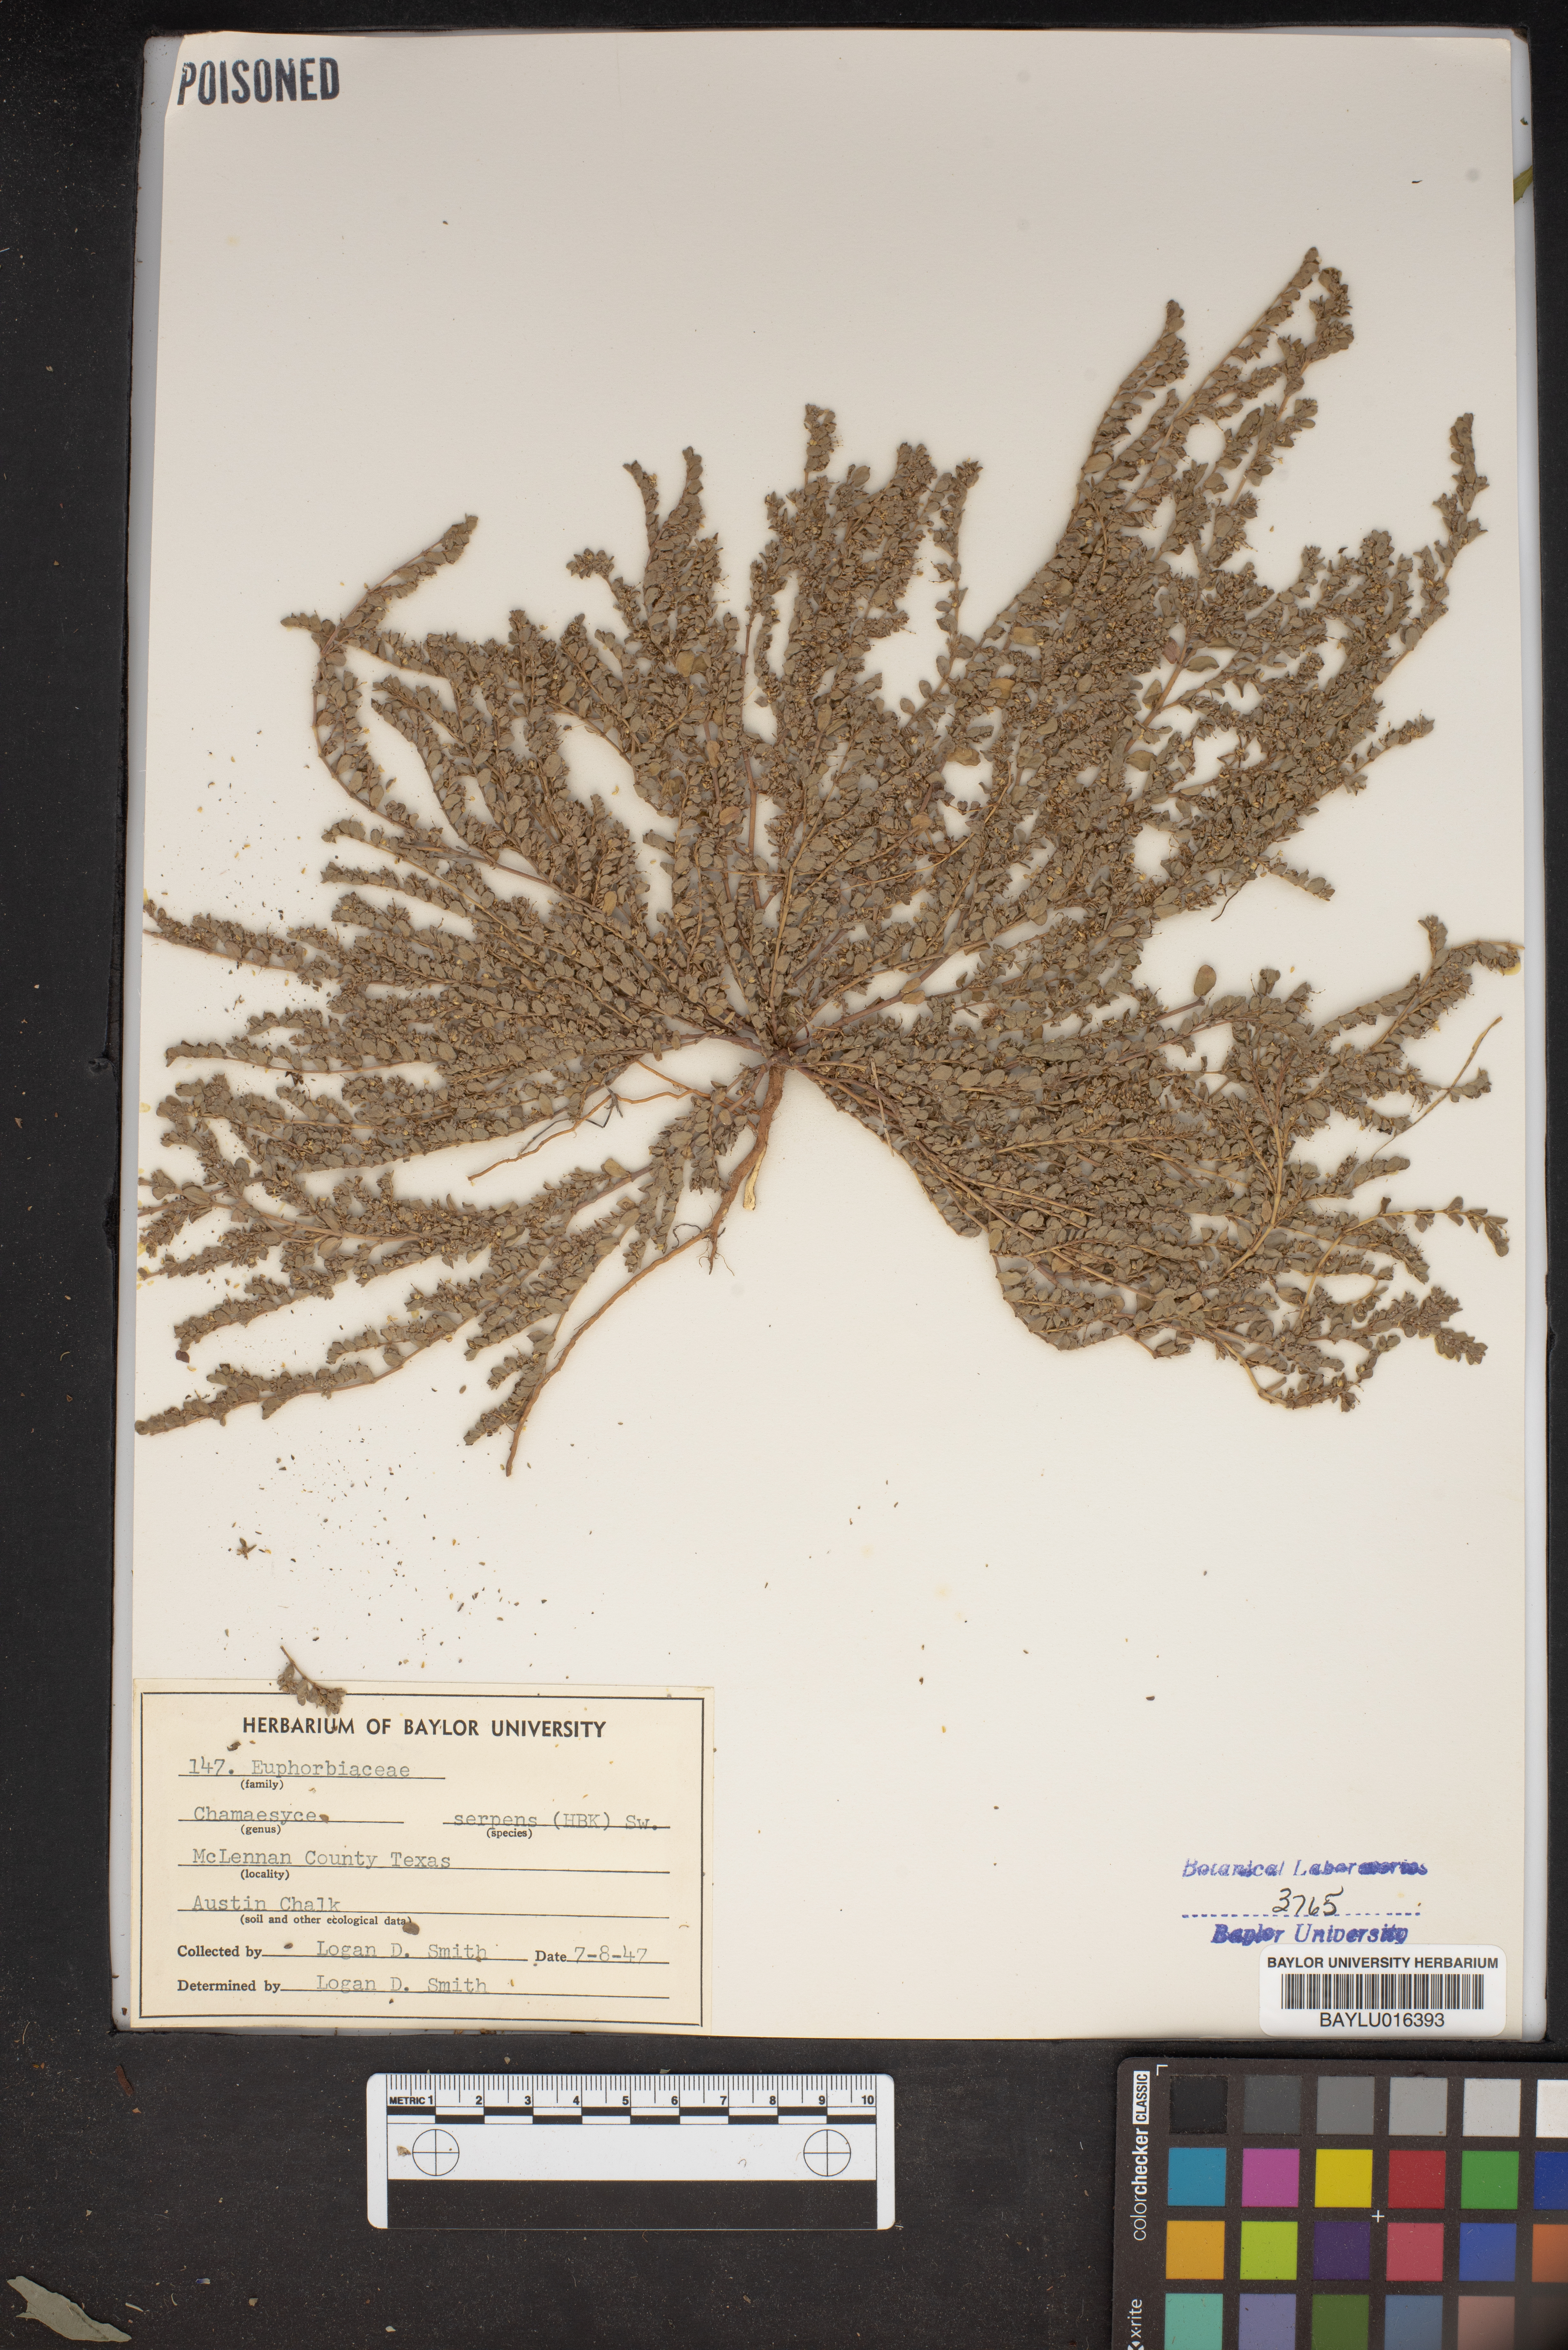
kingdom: Plantae
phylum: Tracheophyta
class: Magnoliopsida
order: Malpighiales
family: Euphorbiaceae
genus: Euphorbia
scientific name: Euphorbia serpens
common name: Matted sandmat
